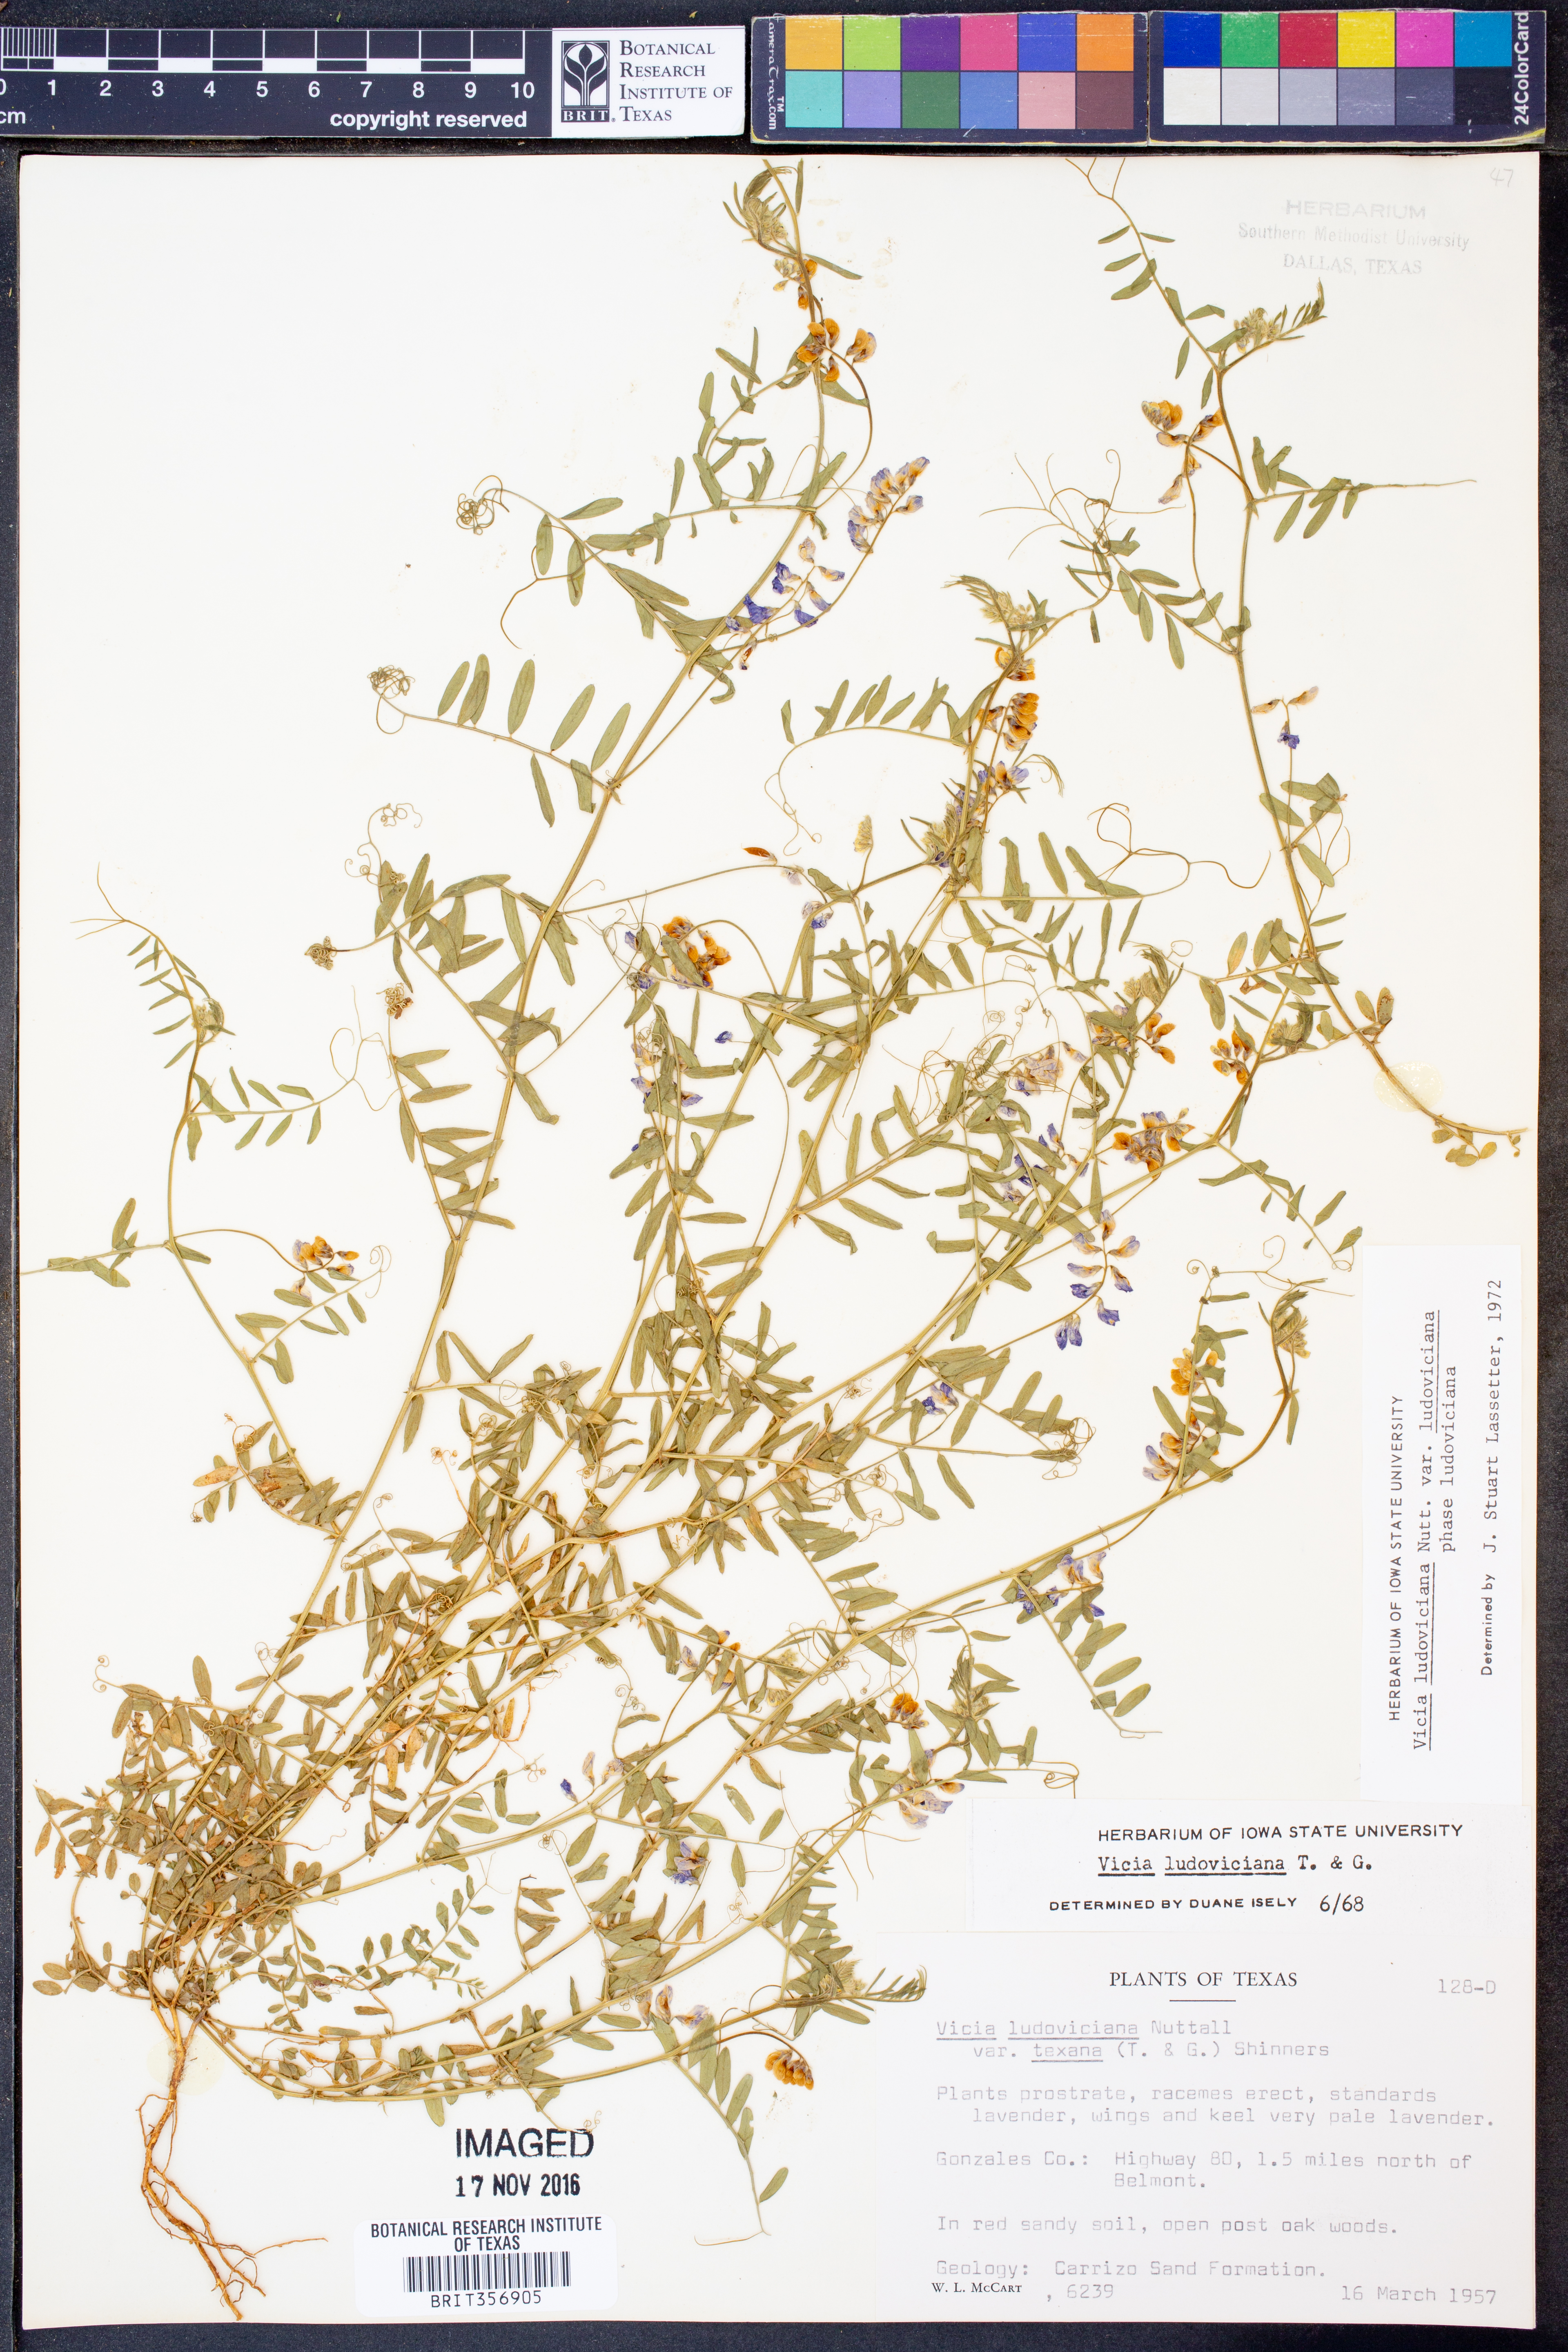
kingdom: Plantae
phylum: Tracheophyta
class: Magnoliopsida
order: Fabales
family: Fabaceae
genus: Vicia
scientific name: Vicia ludoviciana
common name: Louisiana vetch
